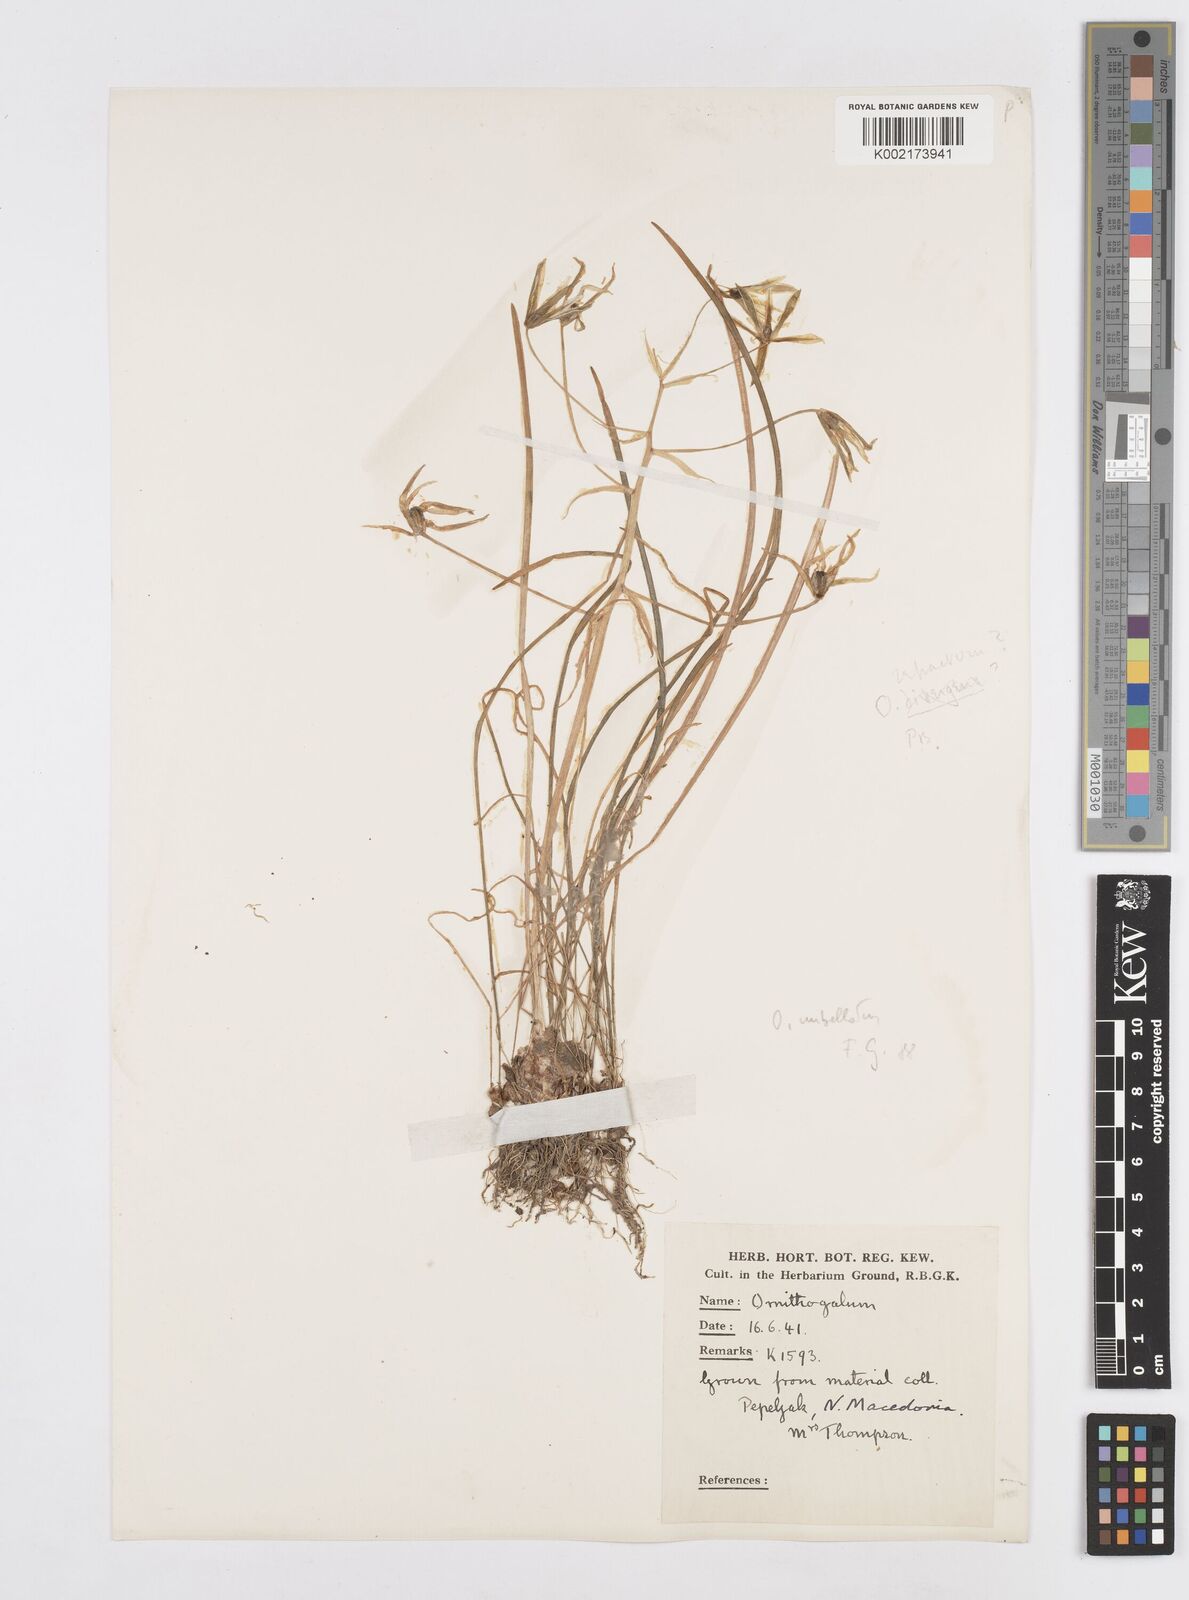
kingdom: Plantae
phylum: Tracheophyta
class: Liliopsida
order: Asparagales
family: Asparagaceae
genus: Ornithogalum
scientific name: Ornithogalum refractum
